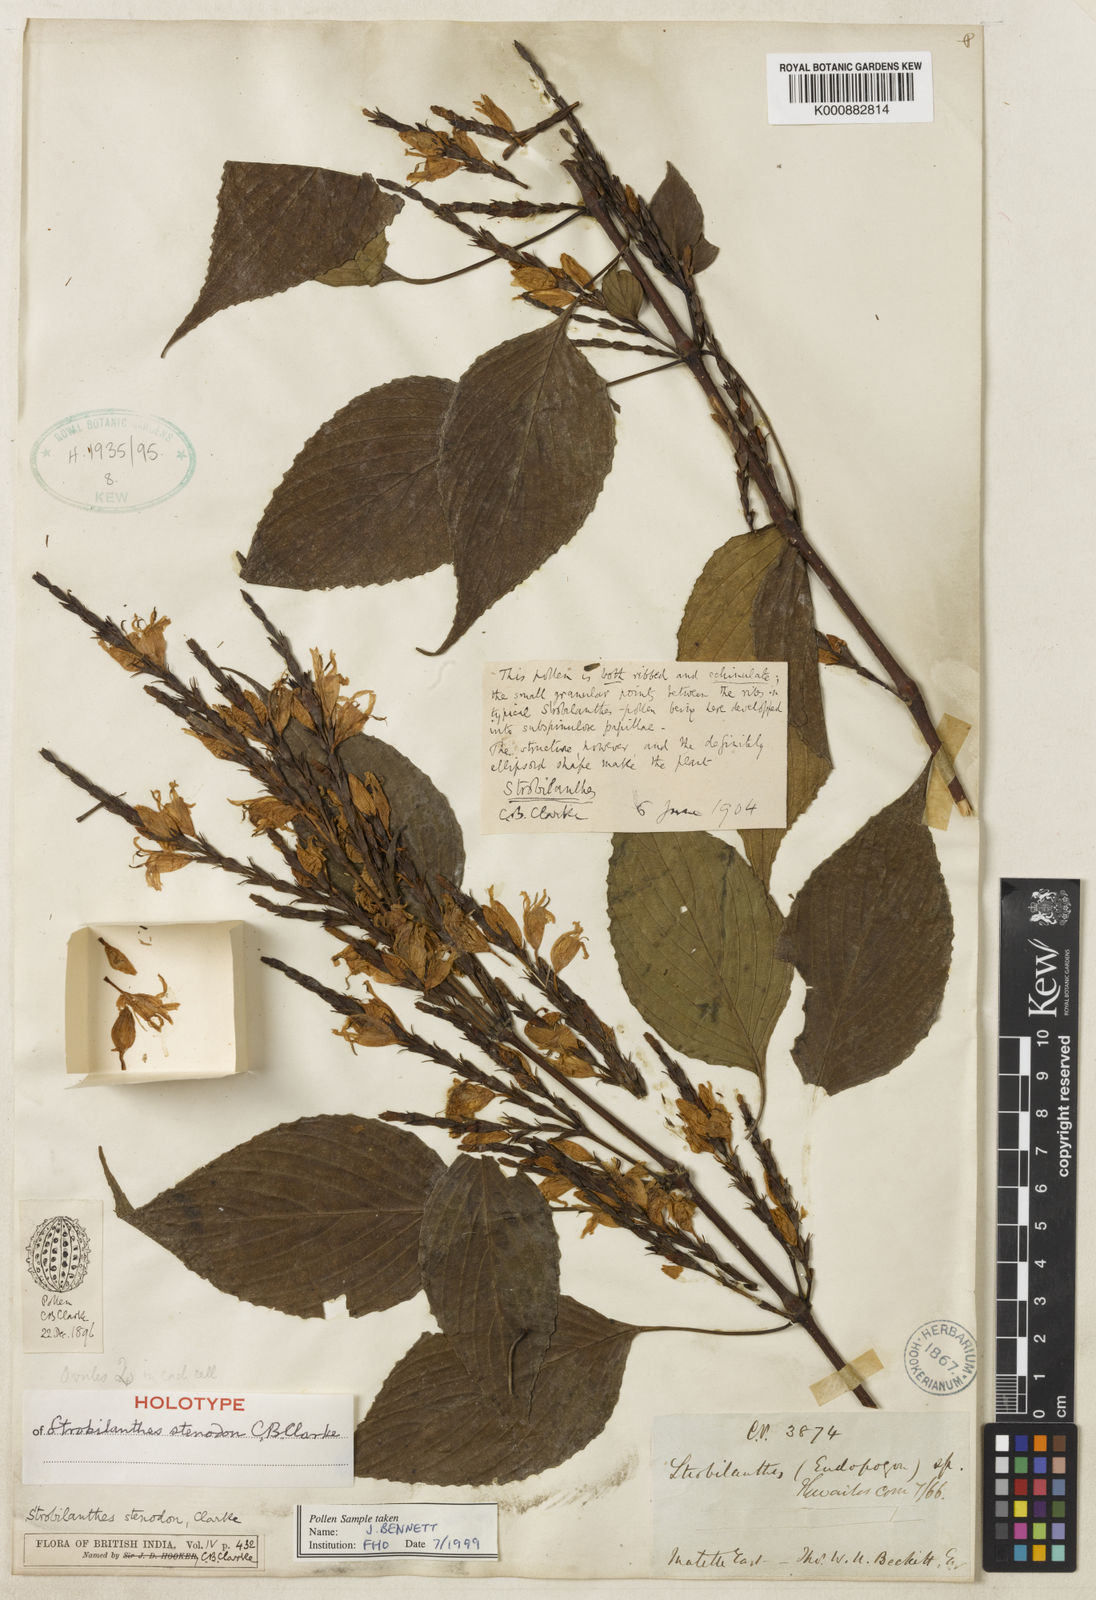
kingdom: Plantae
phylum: Tracheophyta
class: Magnoliopsida
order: Lamiales
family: Acanthaceae
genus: Strobilanthes
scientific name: Strobilanthes stenodon
